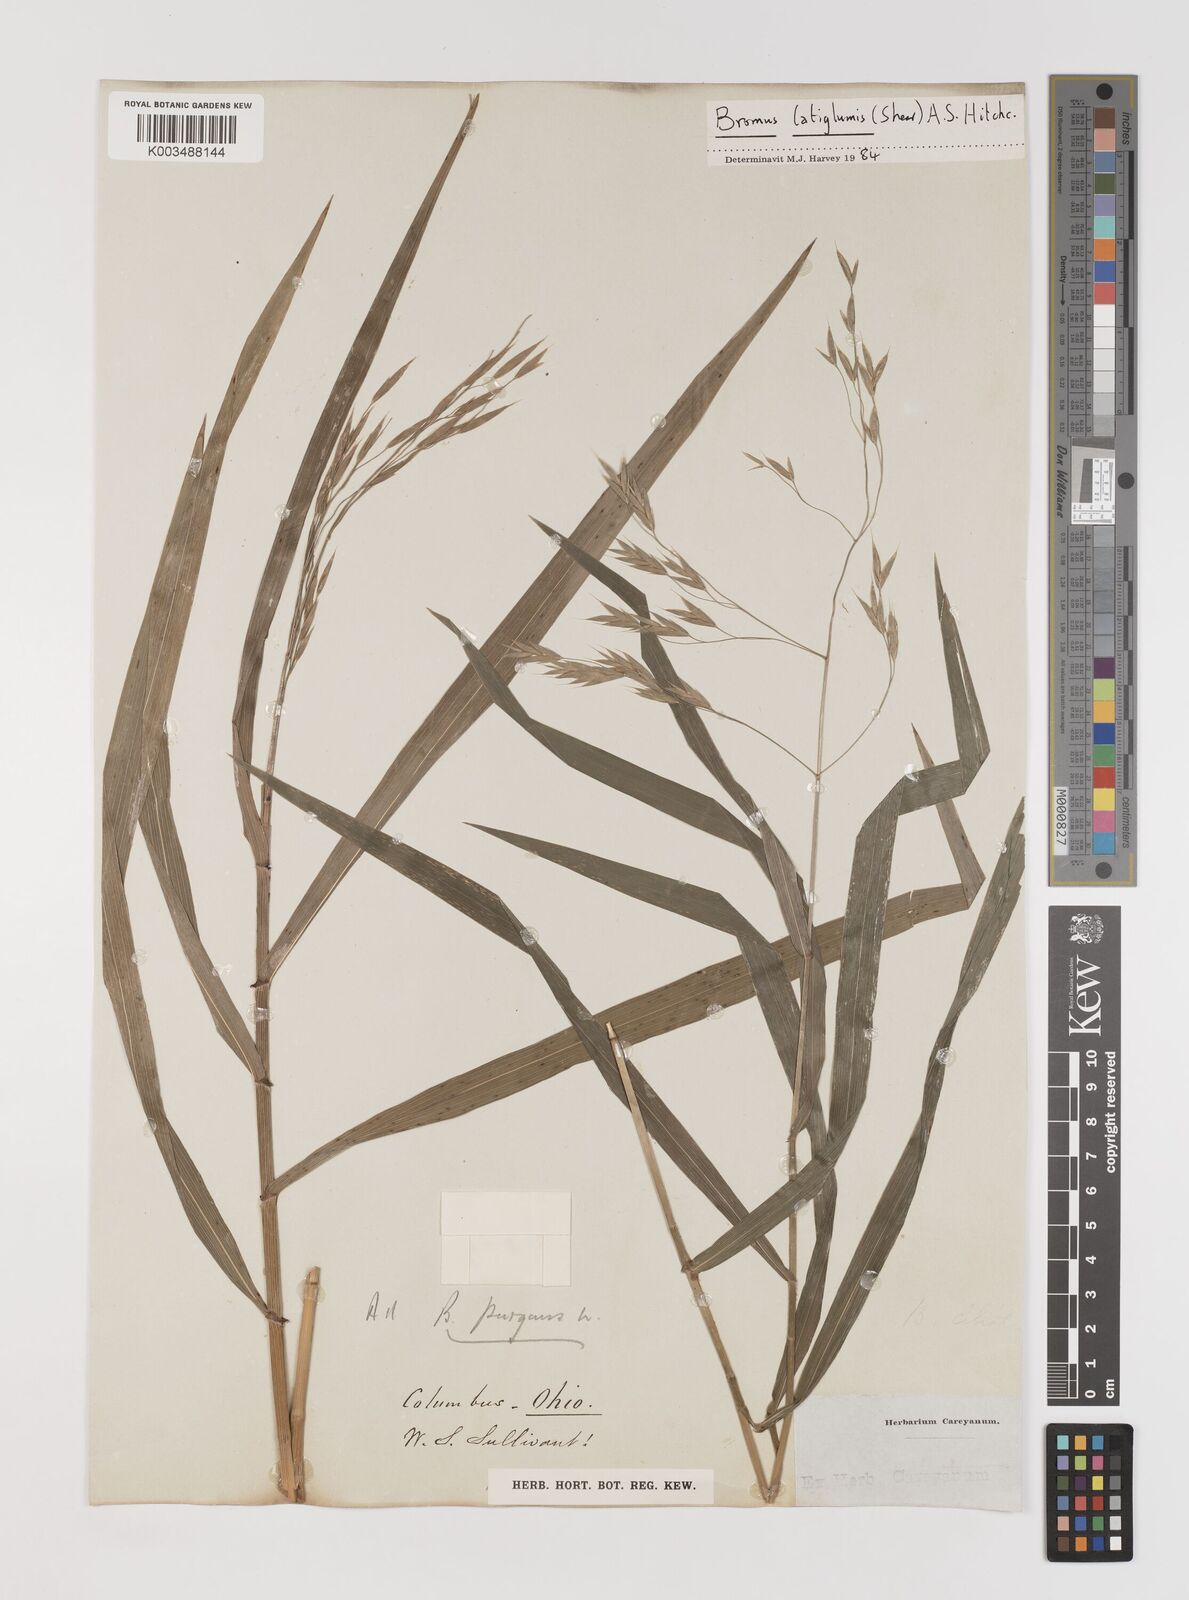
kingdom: Plantae
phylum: Tracheophyta
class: Liliopsida
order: Poales
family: Poaceae
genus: Bromus
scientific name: Bromus latiglumis
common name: Broad-glumed brome
